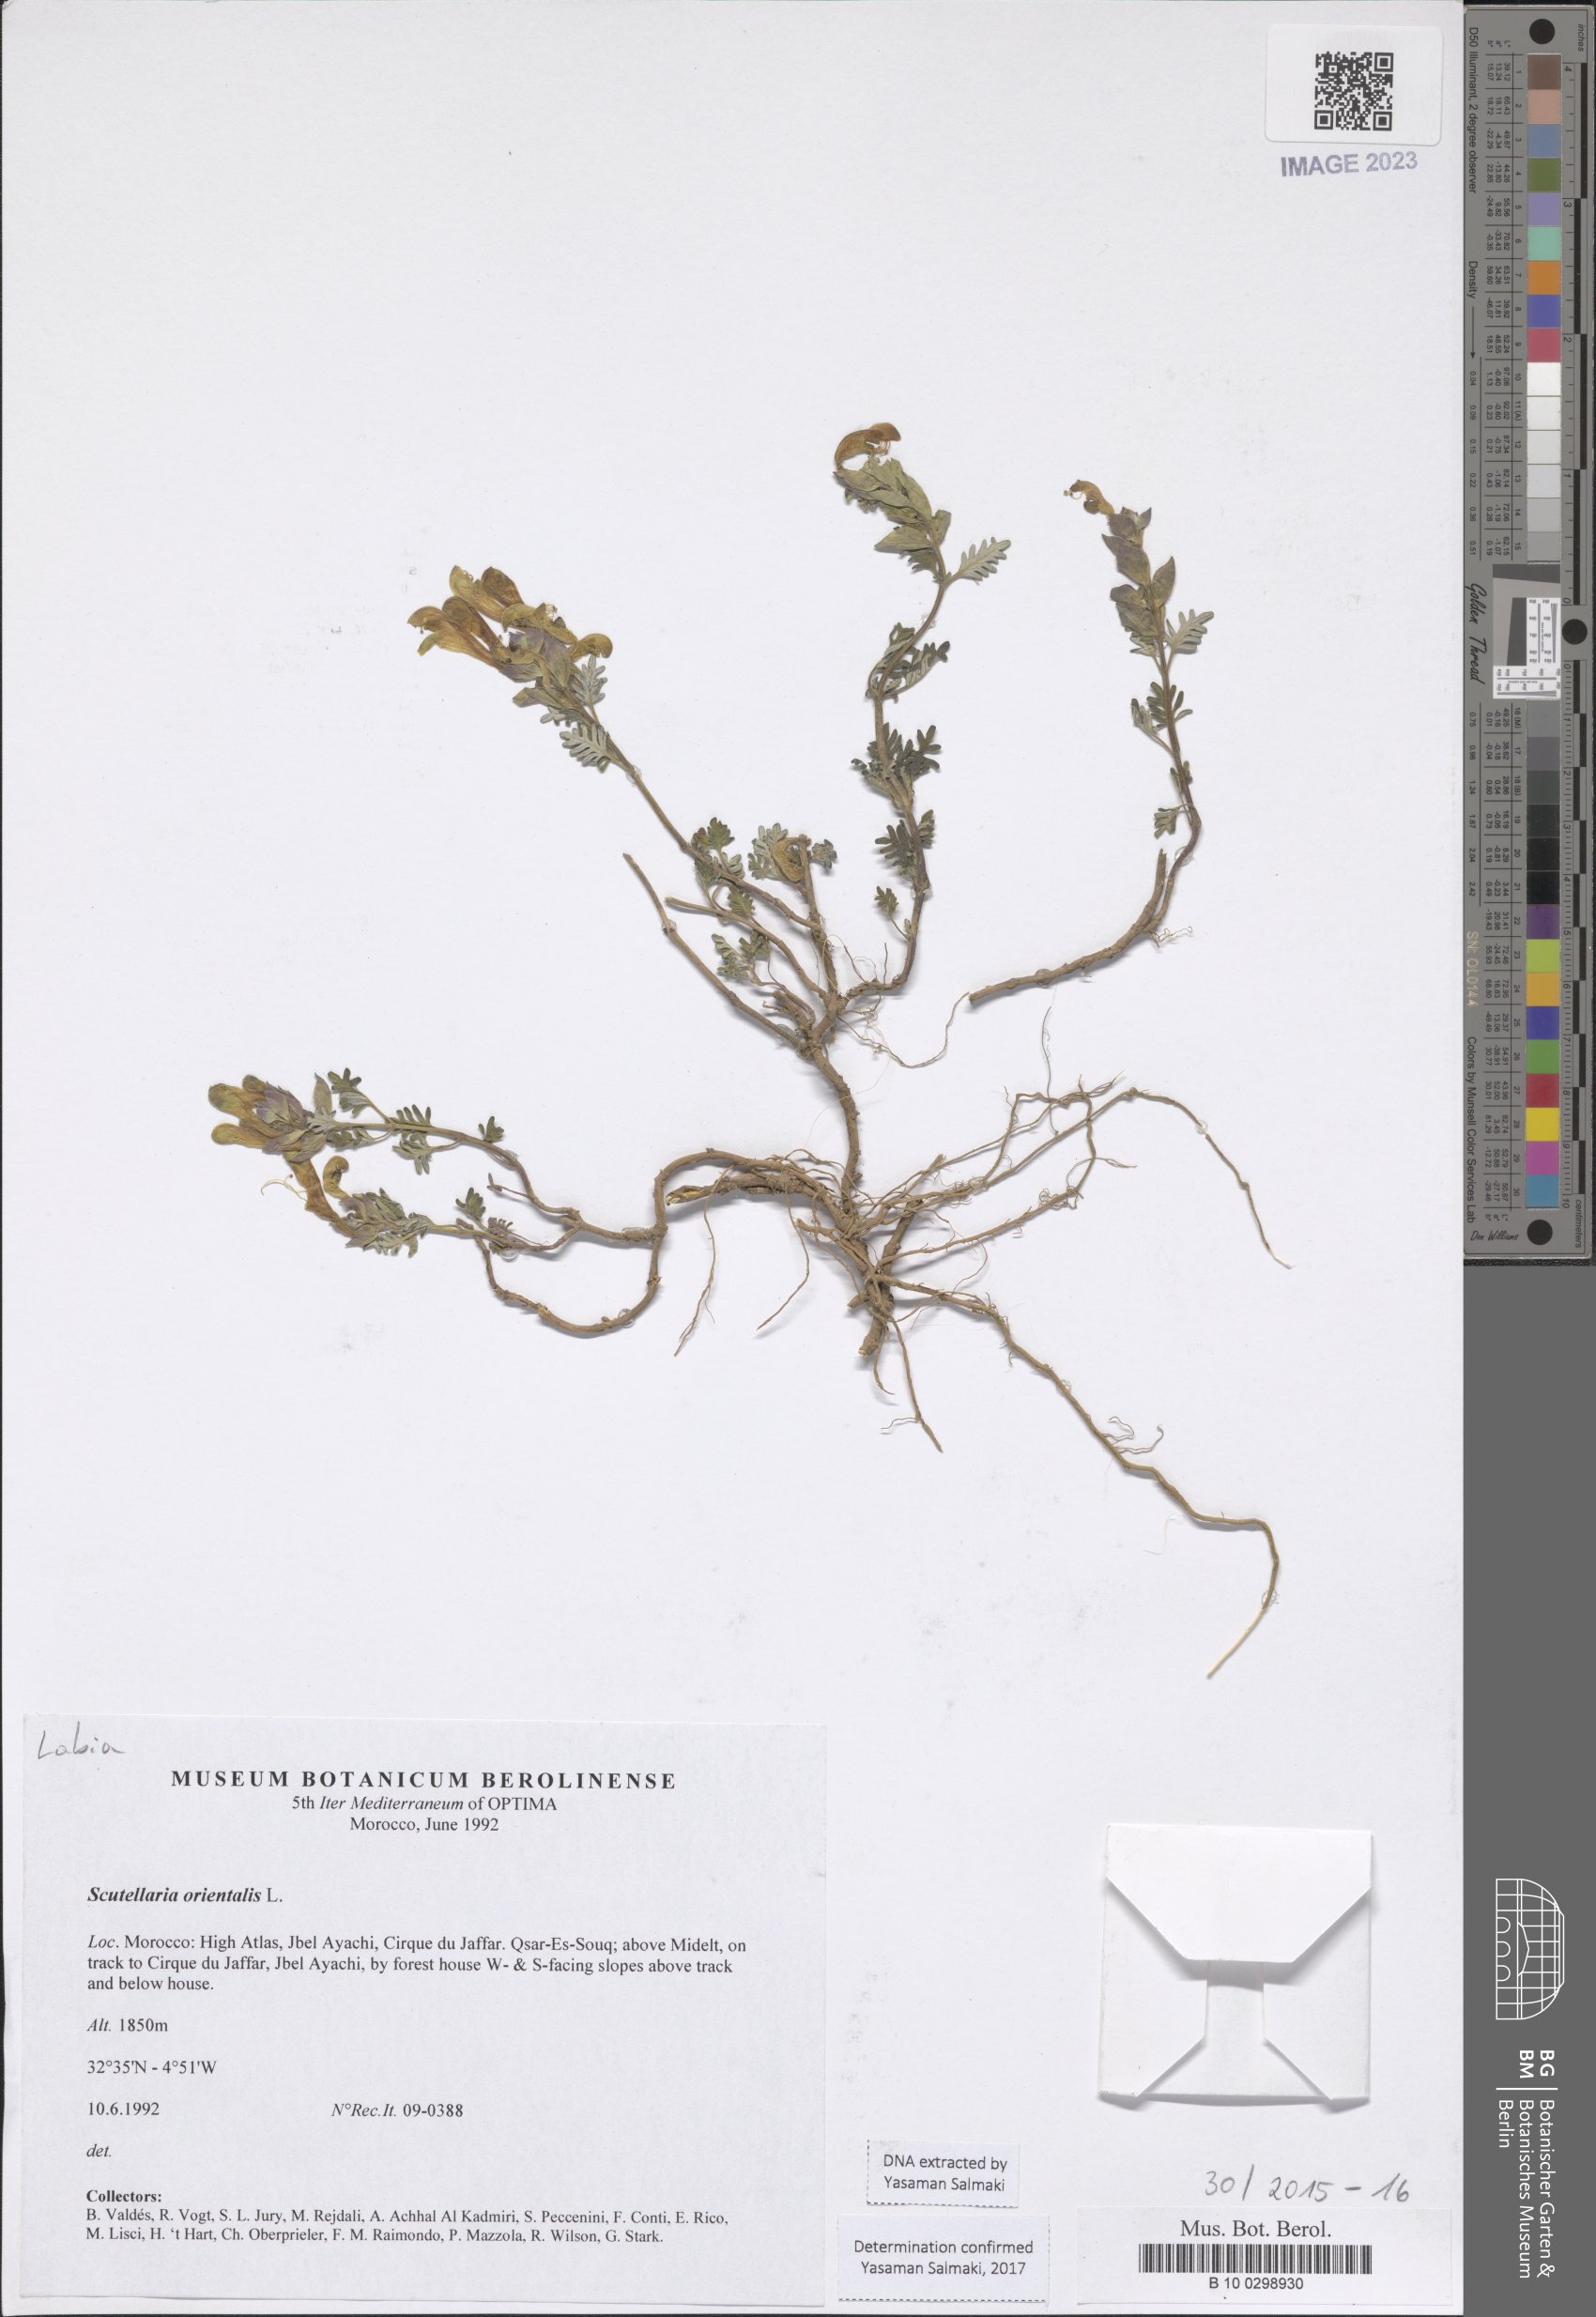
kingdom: Plantae
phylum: Tracheophyta
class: Magnoliopsida
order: Lamiales
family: Lamiaceae
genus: Scutellaria
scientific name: Scutellaria orientalis
